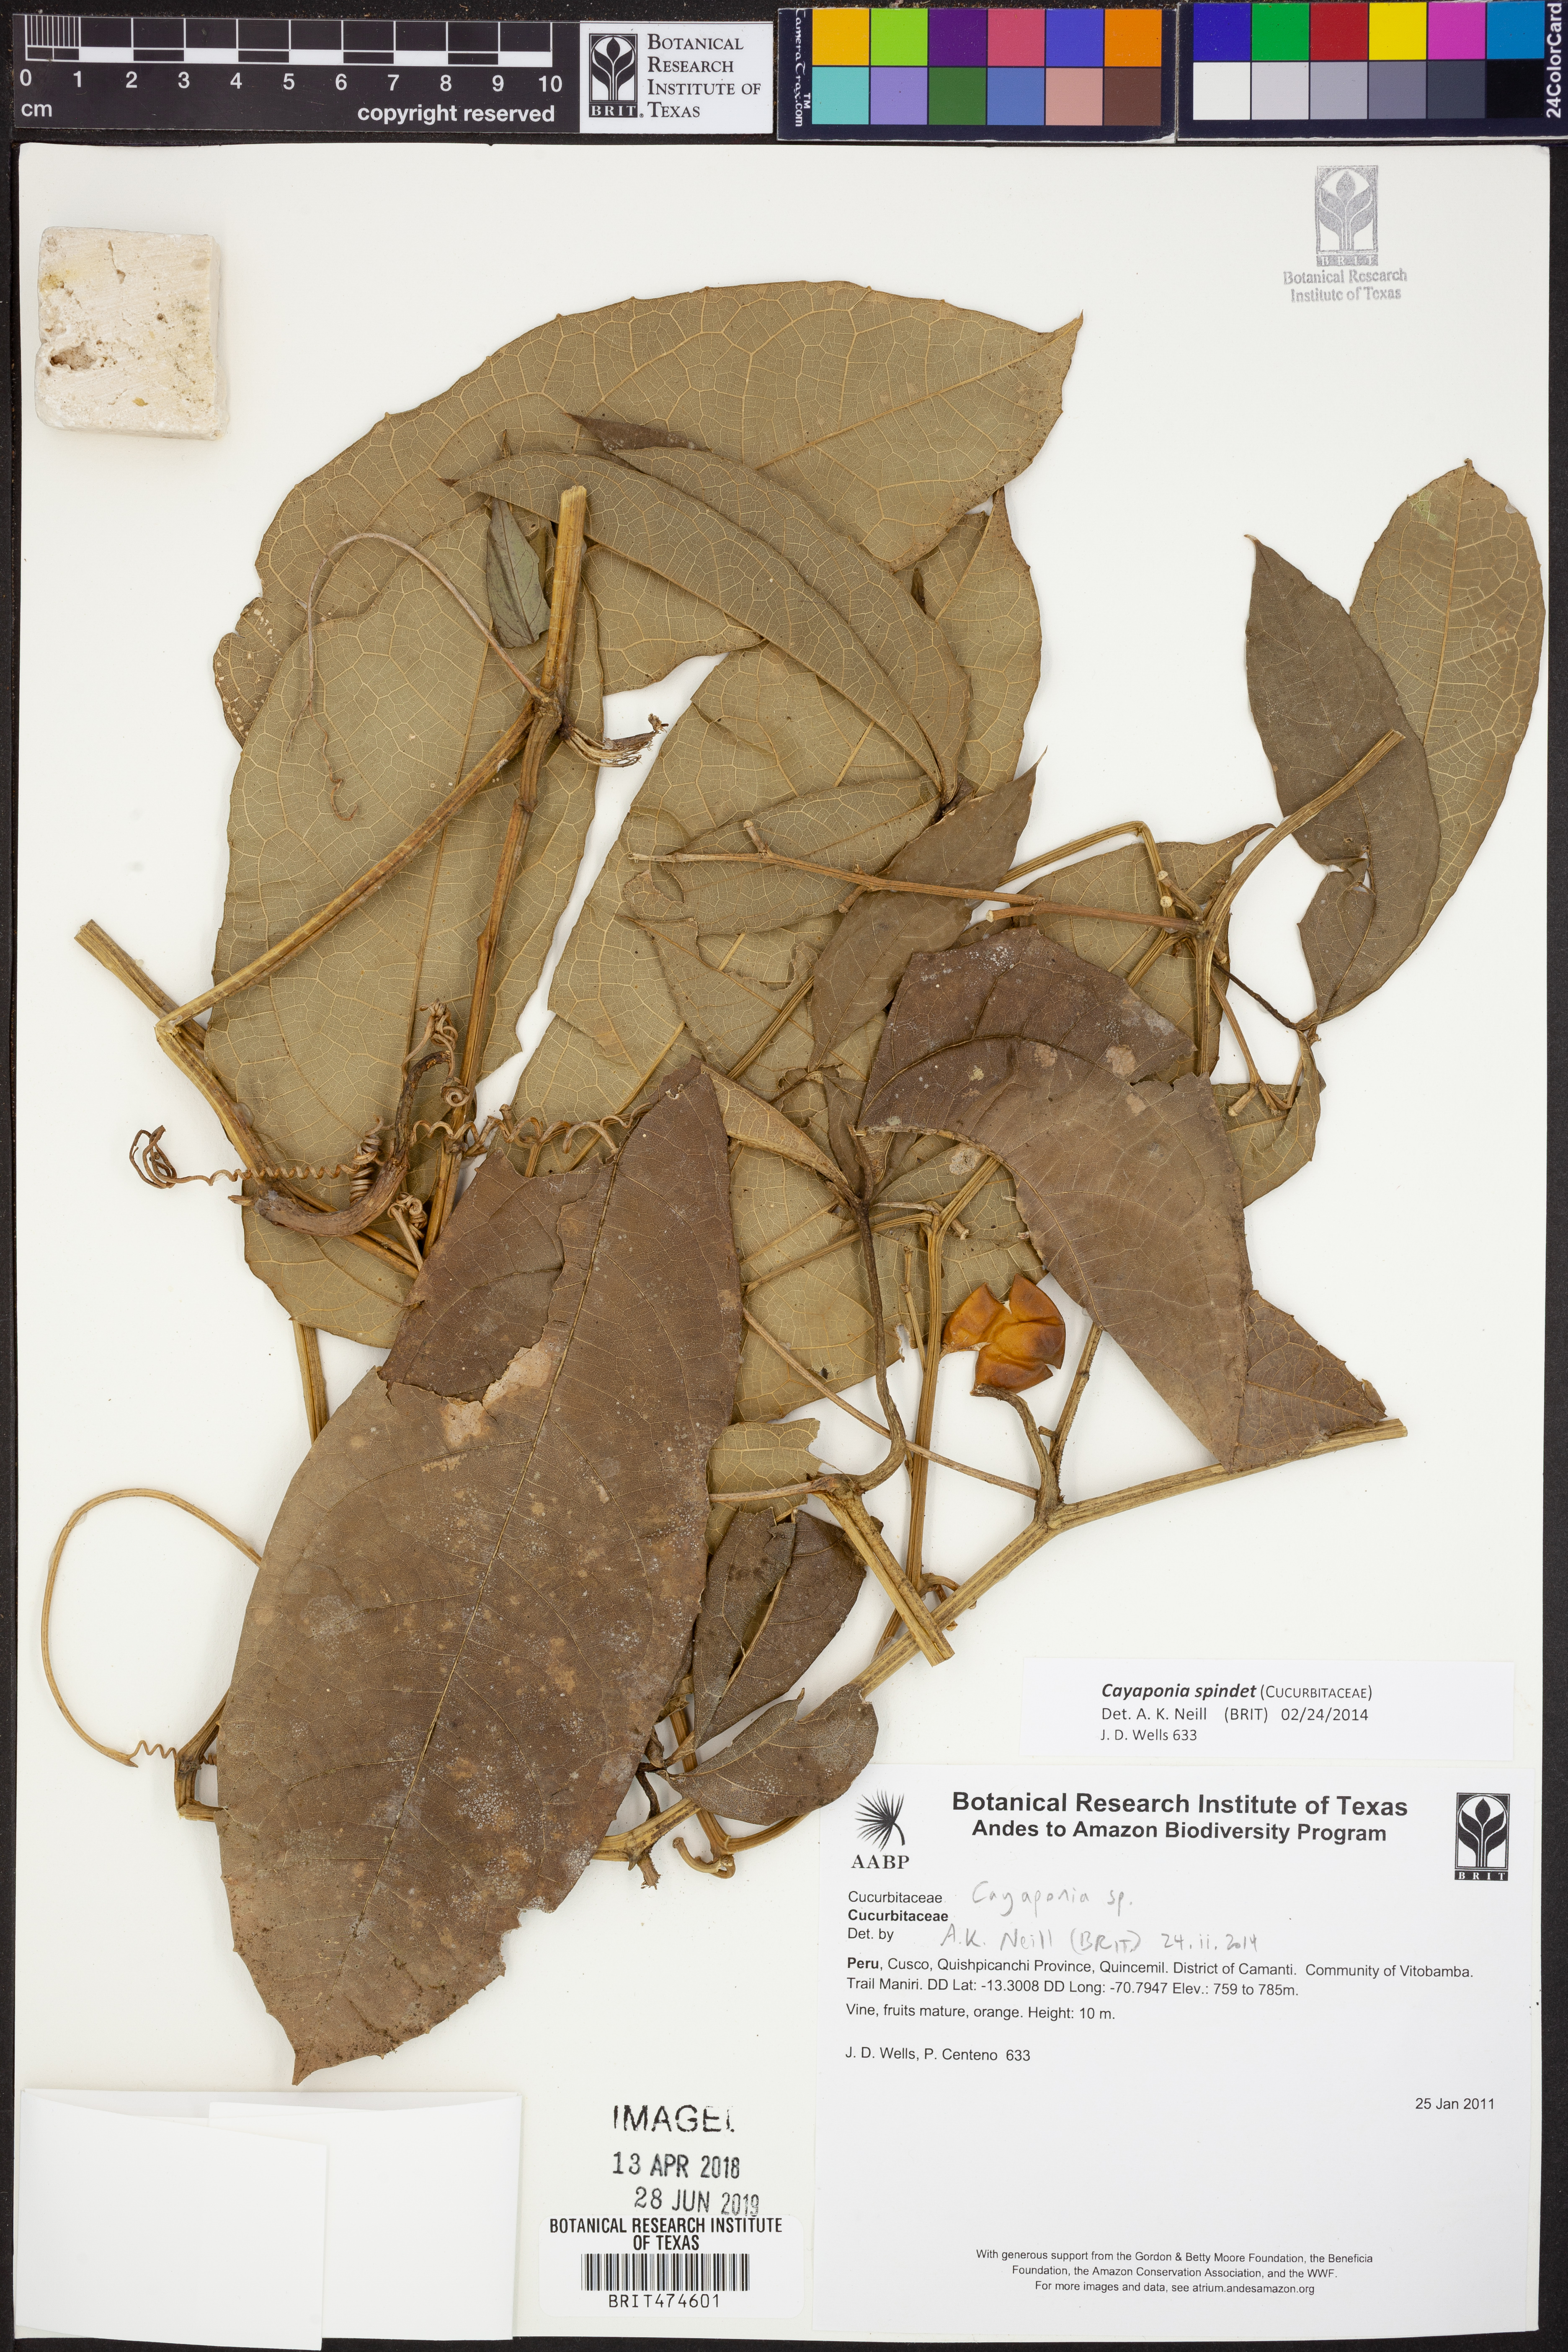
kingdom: Plantae
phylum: Tracheophyta
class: Magnoliopsida
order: Cucurbitales
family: Cucurbitaceae
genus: Cayaponia
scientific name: Cayaponia
